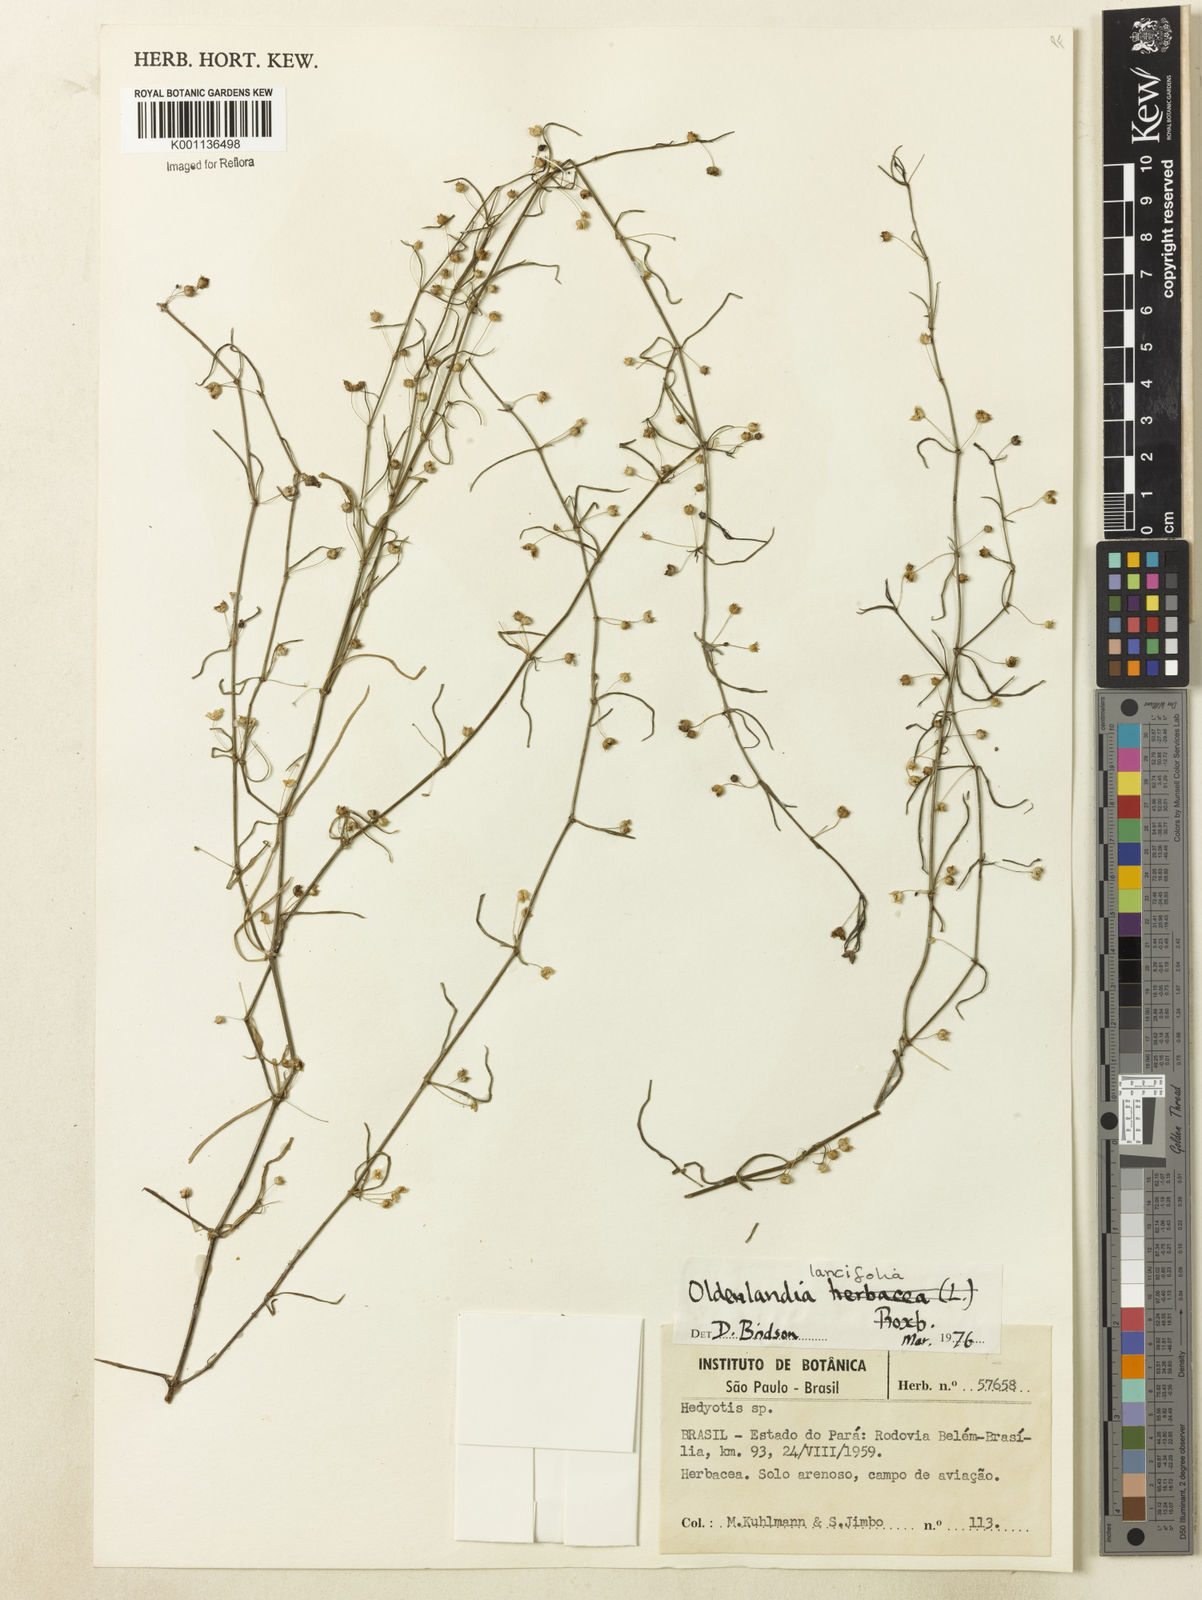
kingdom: Plantae
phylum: Tracheophyta
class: Magnoliopsida
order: Gentianales
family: Rubiaceae
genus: Oldenlandia
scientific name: Oldenlandia lancifolia
